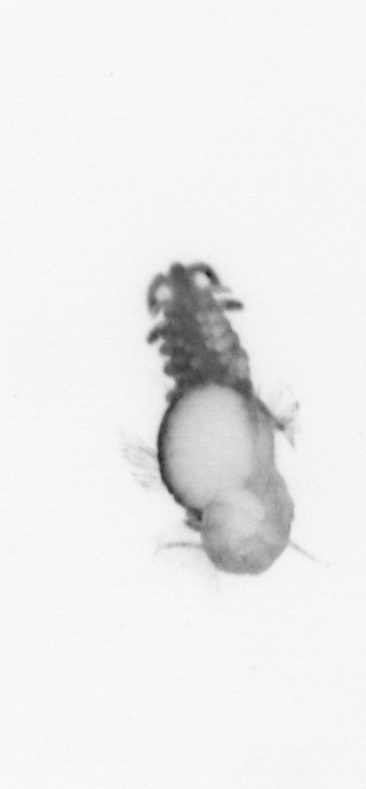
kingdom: Animalia
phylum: Annelida
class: Polychaeta
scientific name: Polychaeta
